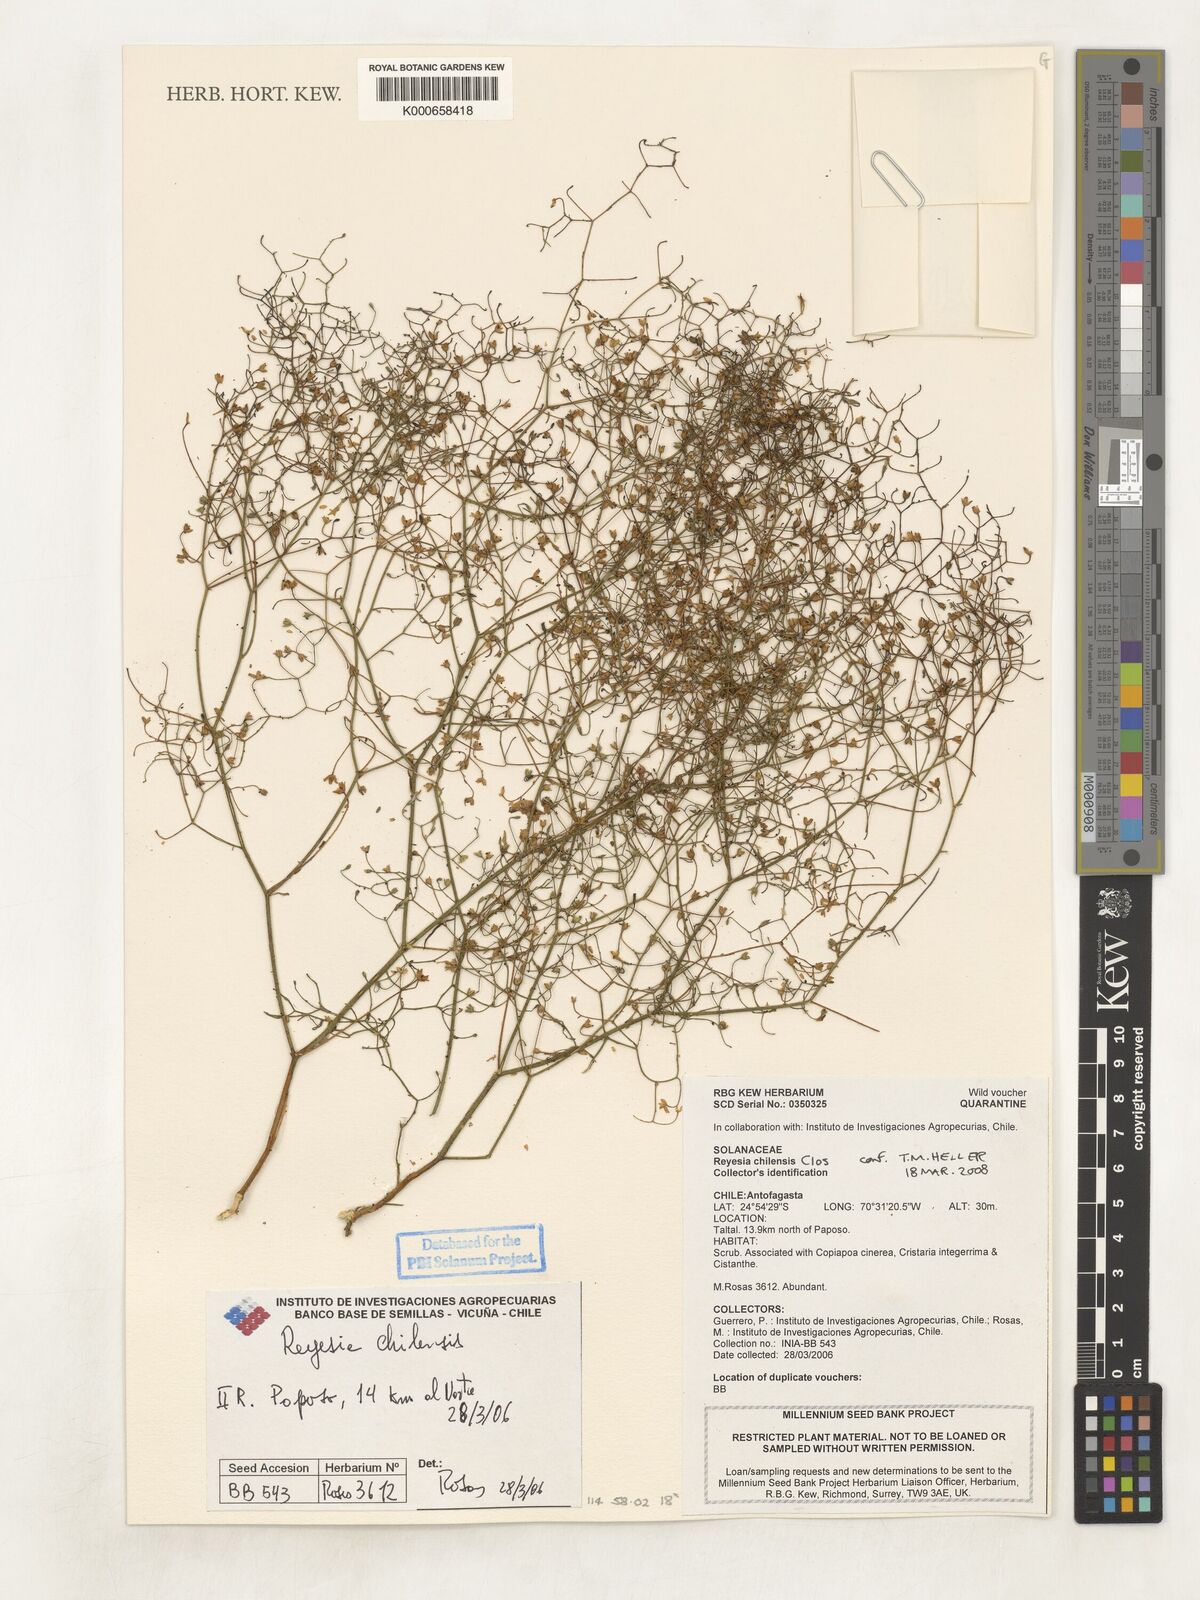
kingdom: Plantae
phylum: Tracheophyta
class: Magnoliopsida
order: Solanales
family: Solanaceae
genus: Reyesia
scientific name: Reyesia
